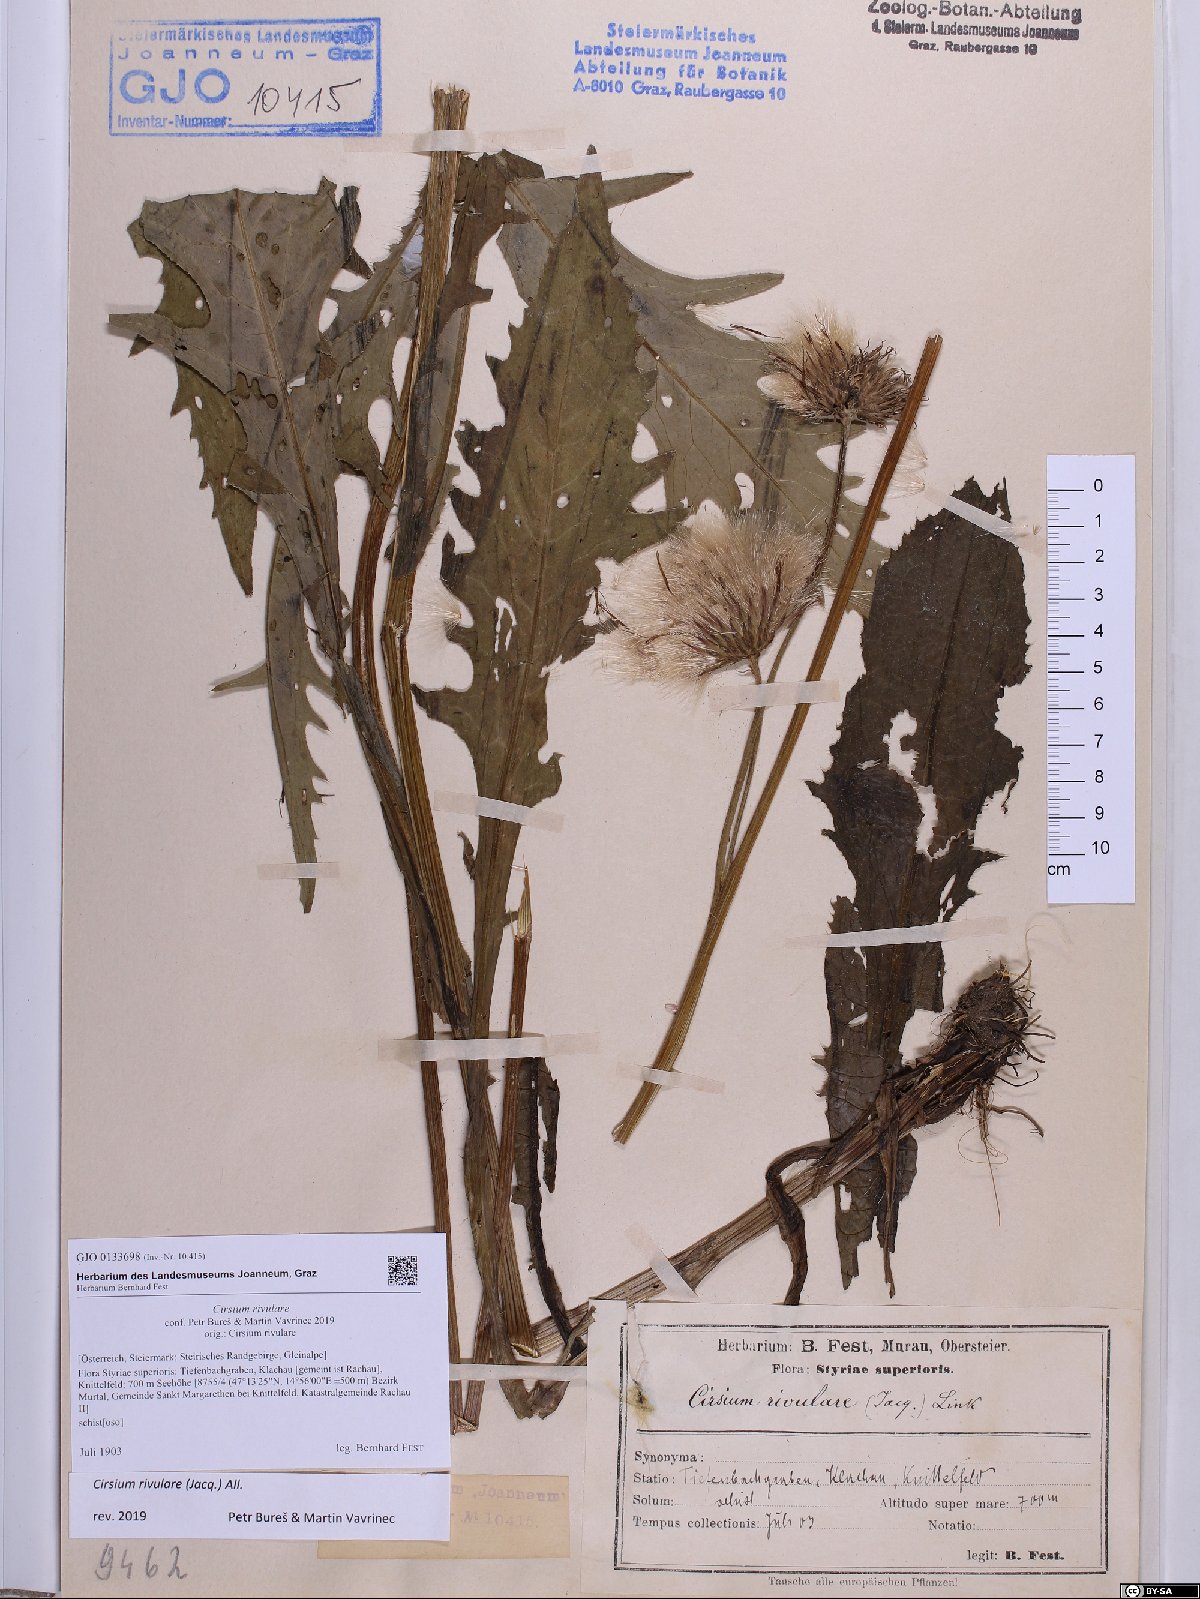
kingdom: Plantae
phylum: Tracheophyta
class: Magnoliopsida
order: Asterales
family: Asteraceae
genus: Cirsium
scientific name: Cirsium rivulare
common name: Brook thistle
